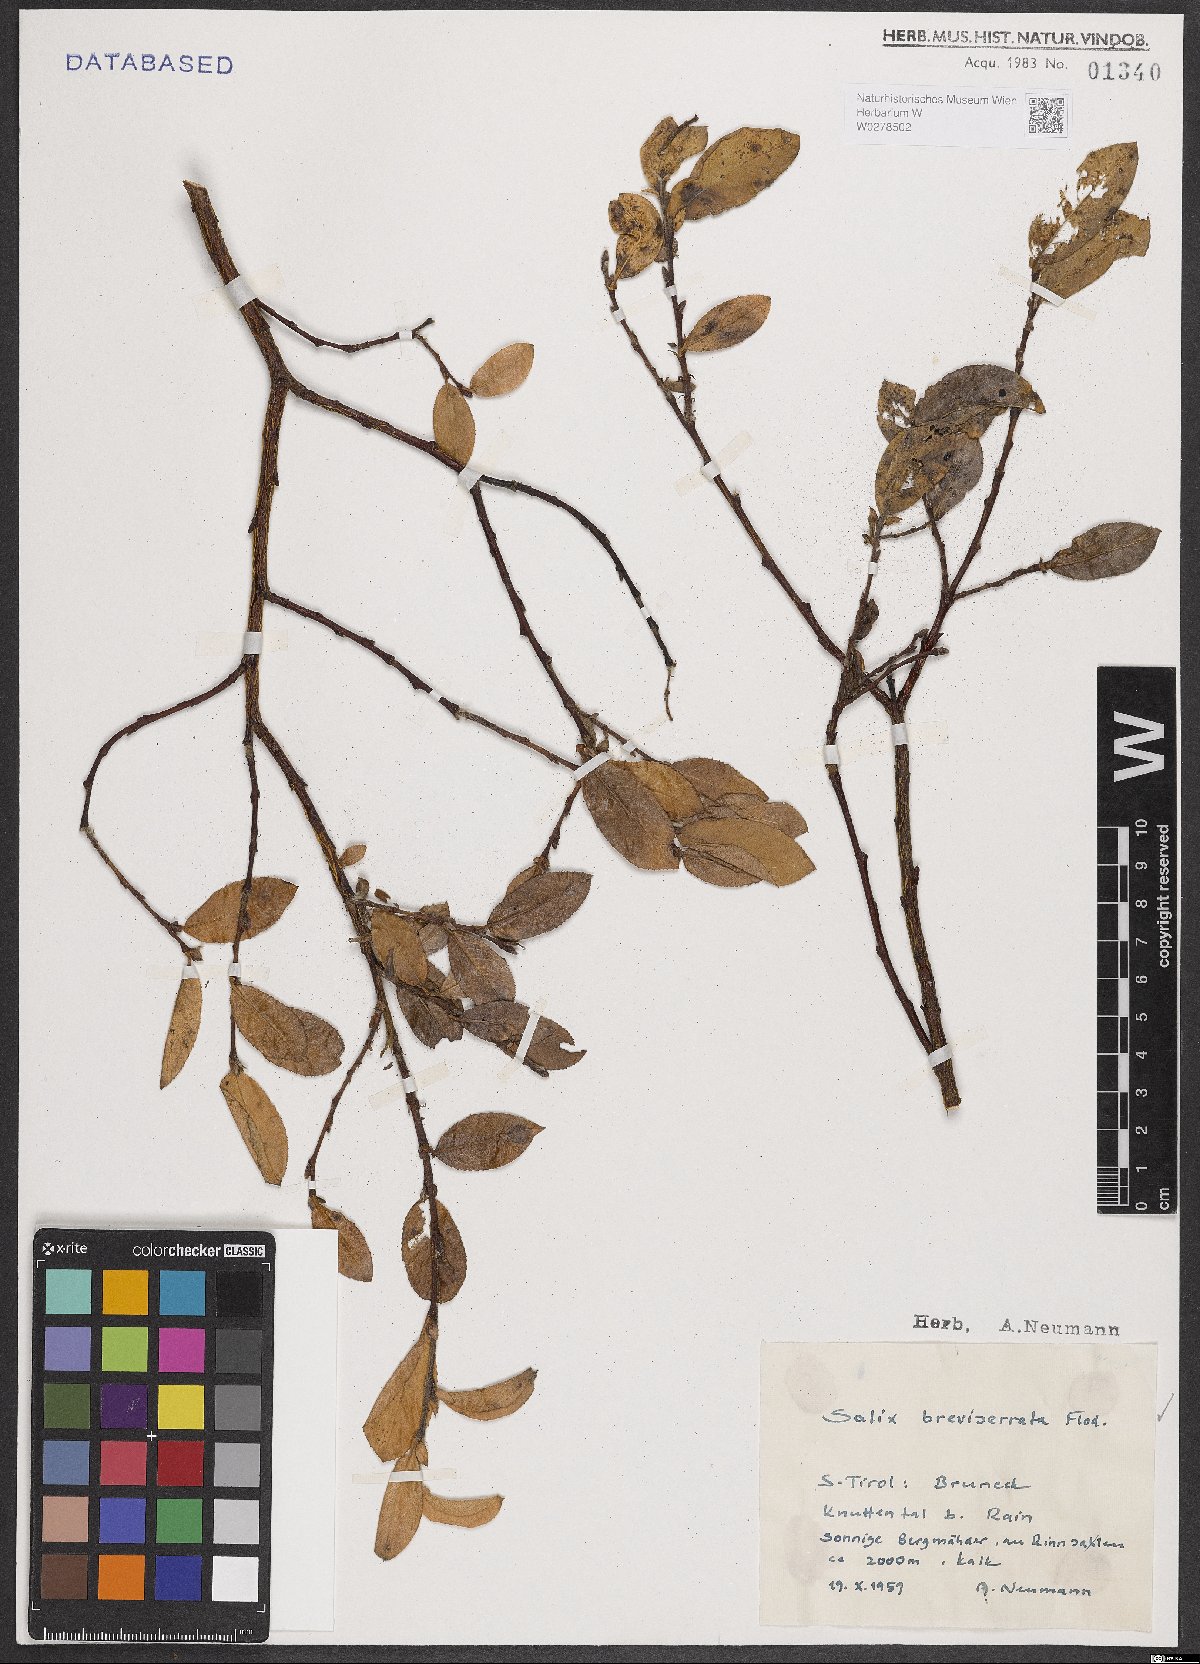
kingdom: Plantae
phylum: Tracheophyta
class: Magnoliopsida
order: Malpighiales
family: Salicaceae
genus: Salix
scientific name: Salix breviserrata
